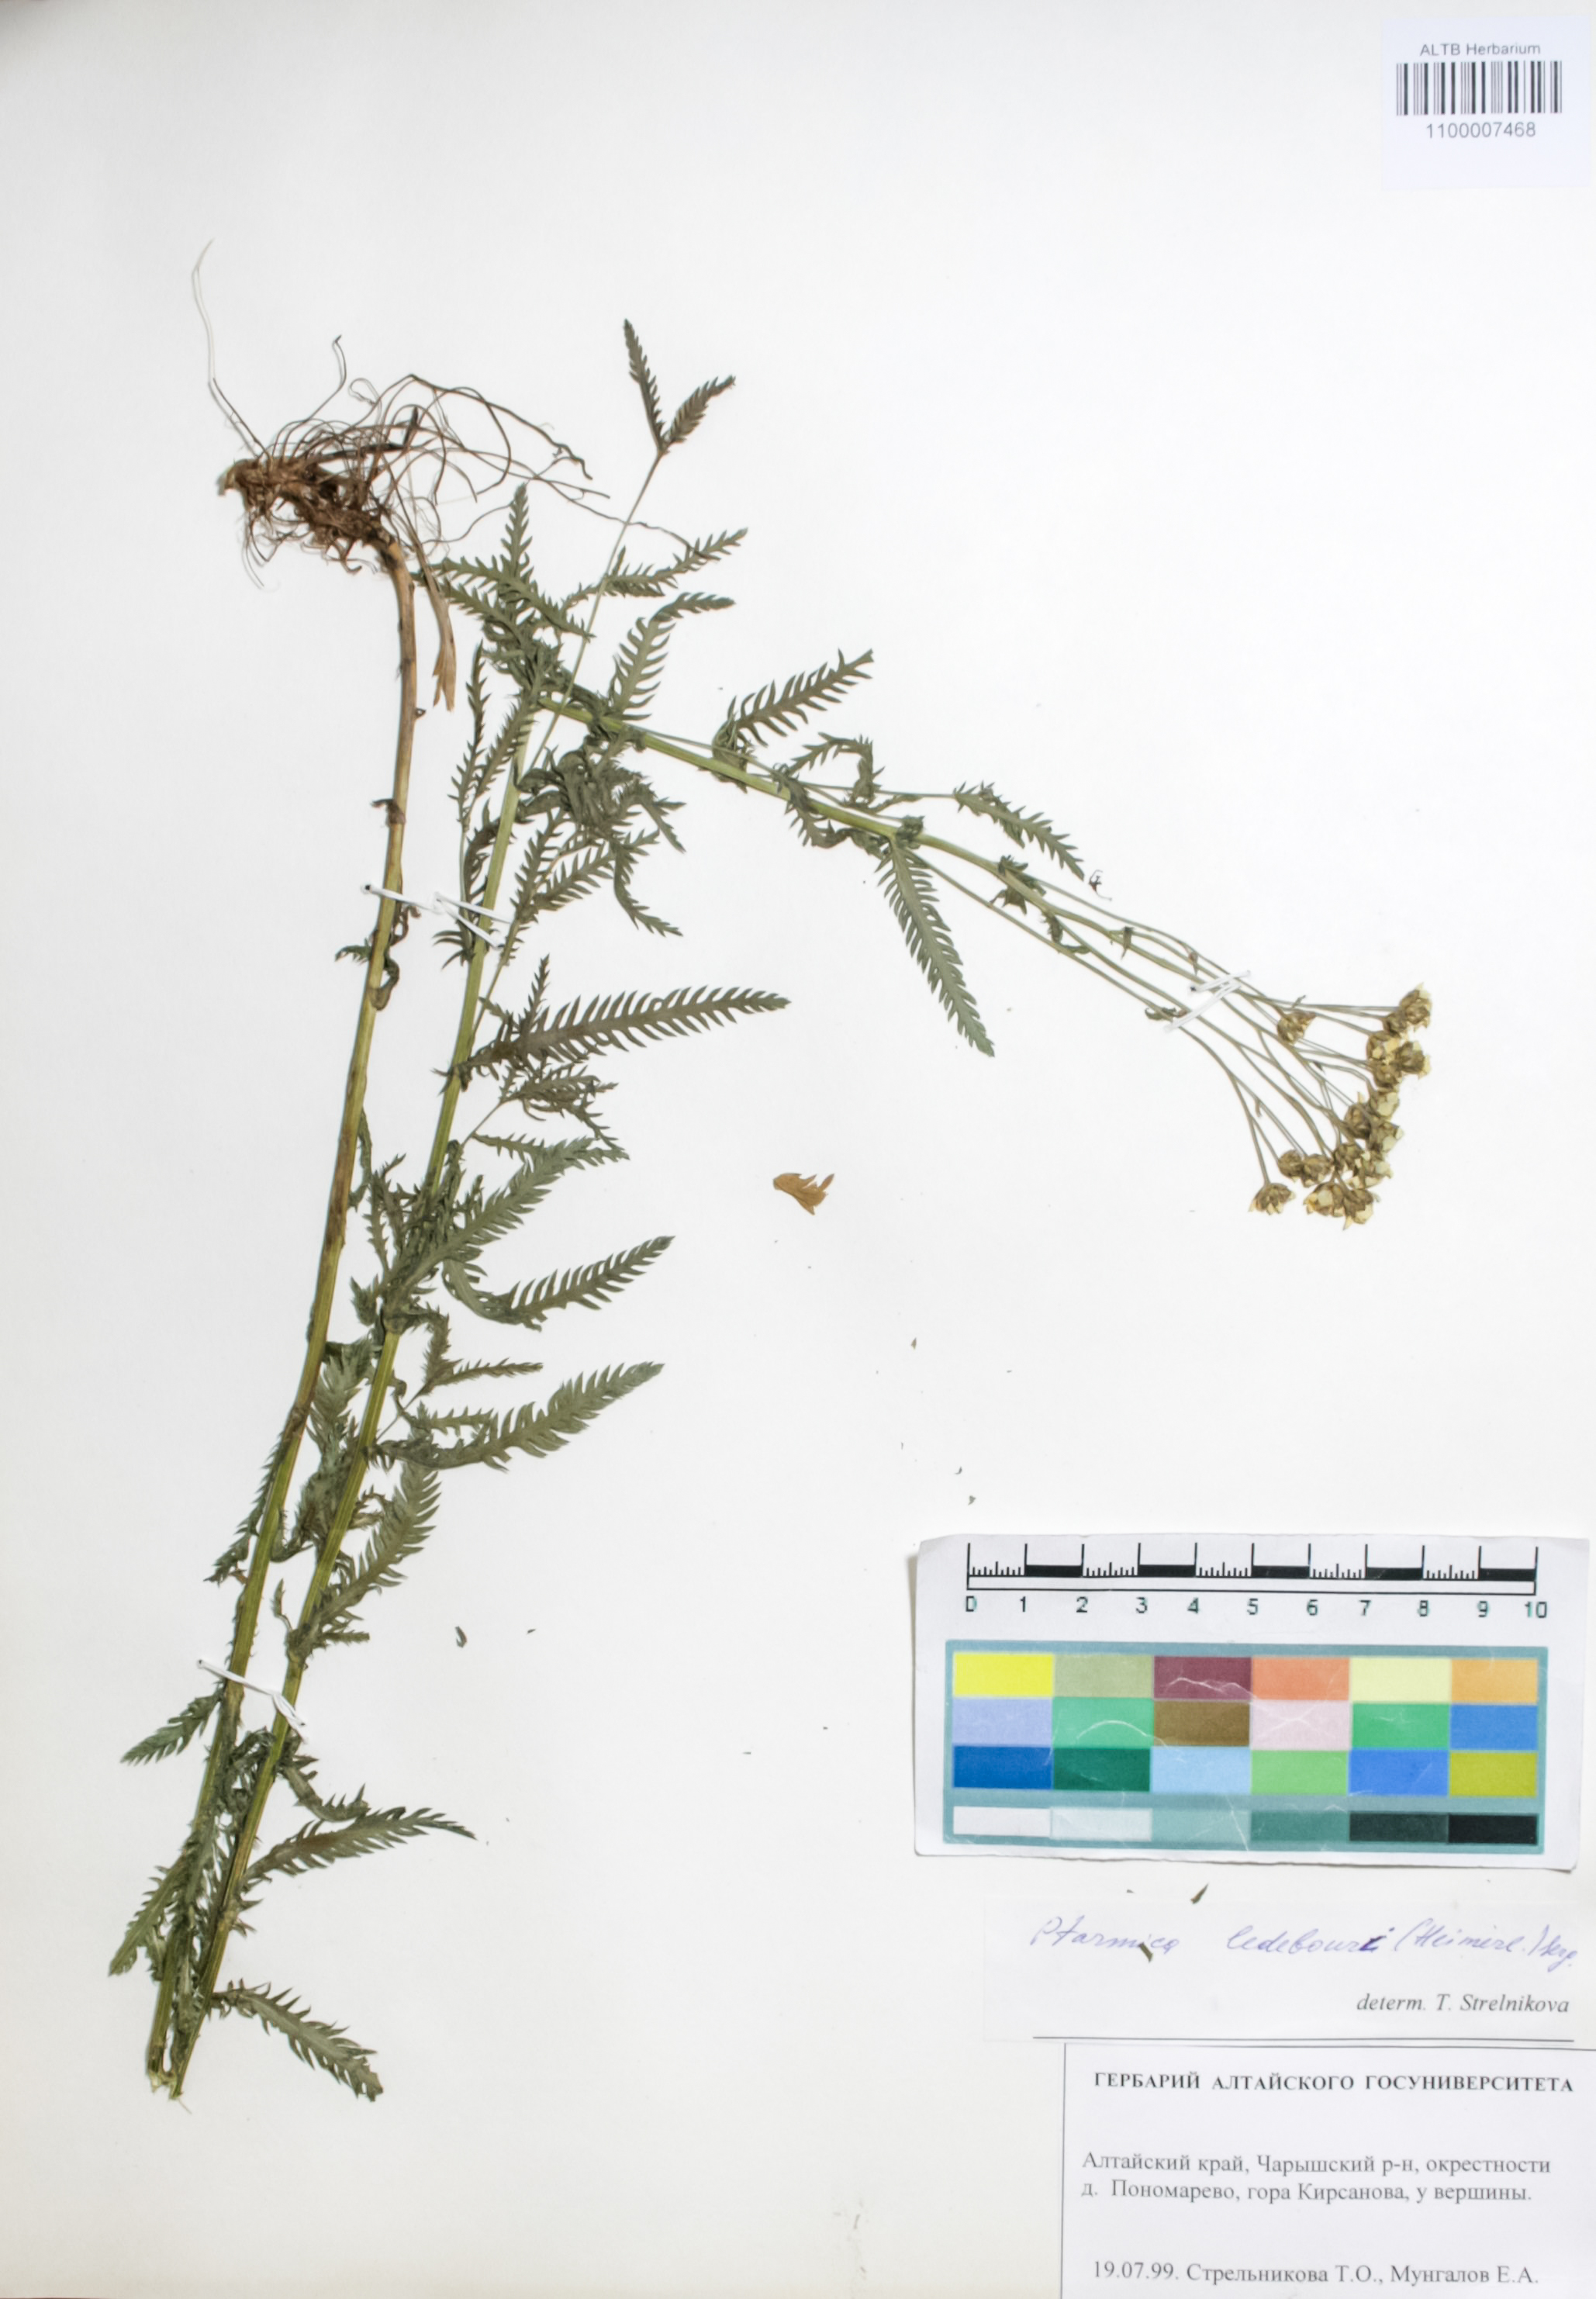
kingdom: Plantae
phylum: Tracheophyta
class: Magnoliopsida
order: Asterales
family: Asteraceae
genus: Achillea
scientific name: Achillea ledebourii
